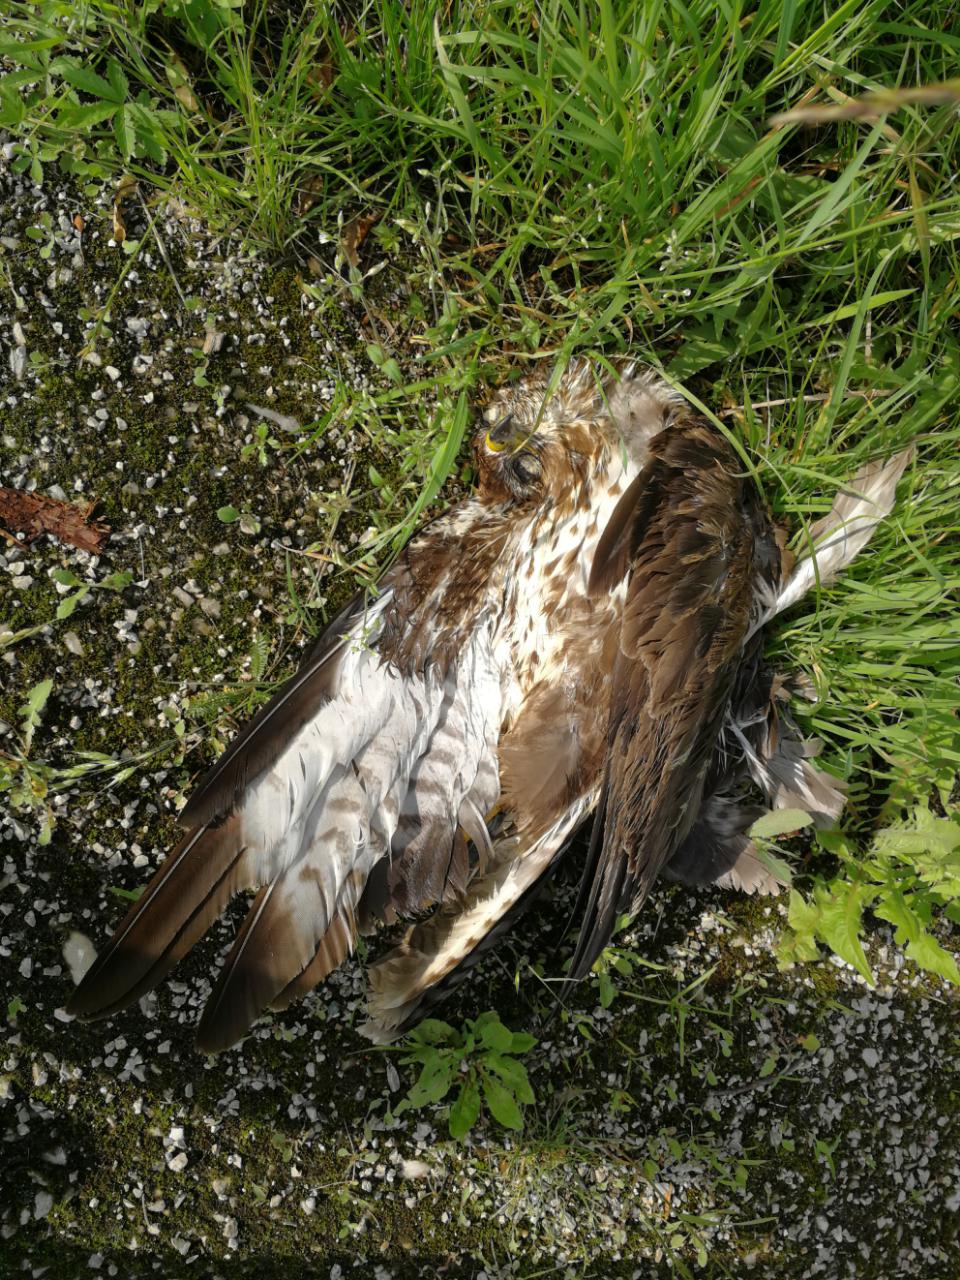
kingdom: Animalia
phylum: Chordata
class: Aves
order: Accipitriformes
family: Accipitridae
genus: Buteo
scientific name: Buteo buteo
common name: Common buzzard
